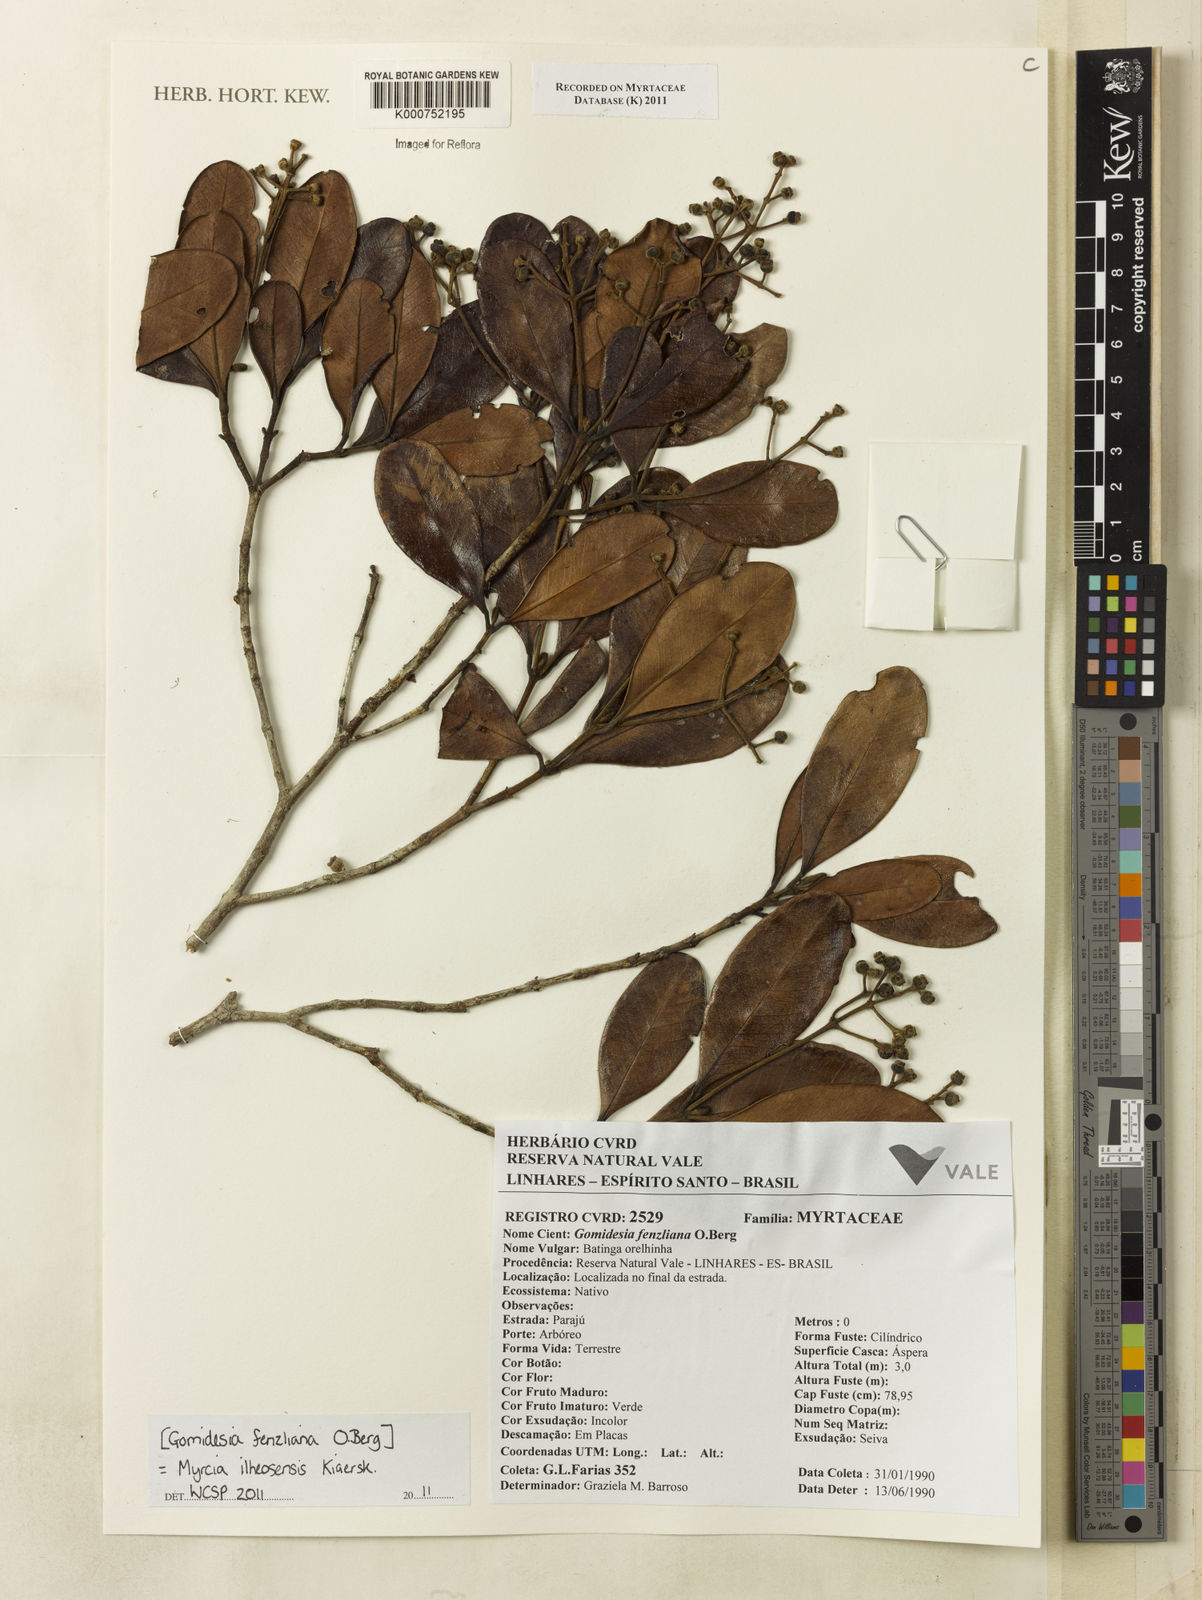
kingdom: Plantae
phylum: Tracheophyta
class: Magnoliopsida
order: Myrtales
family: Myrtaceae
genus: Myrcia
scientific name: Myrcia ilheosensis
